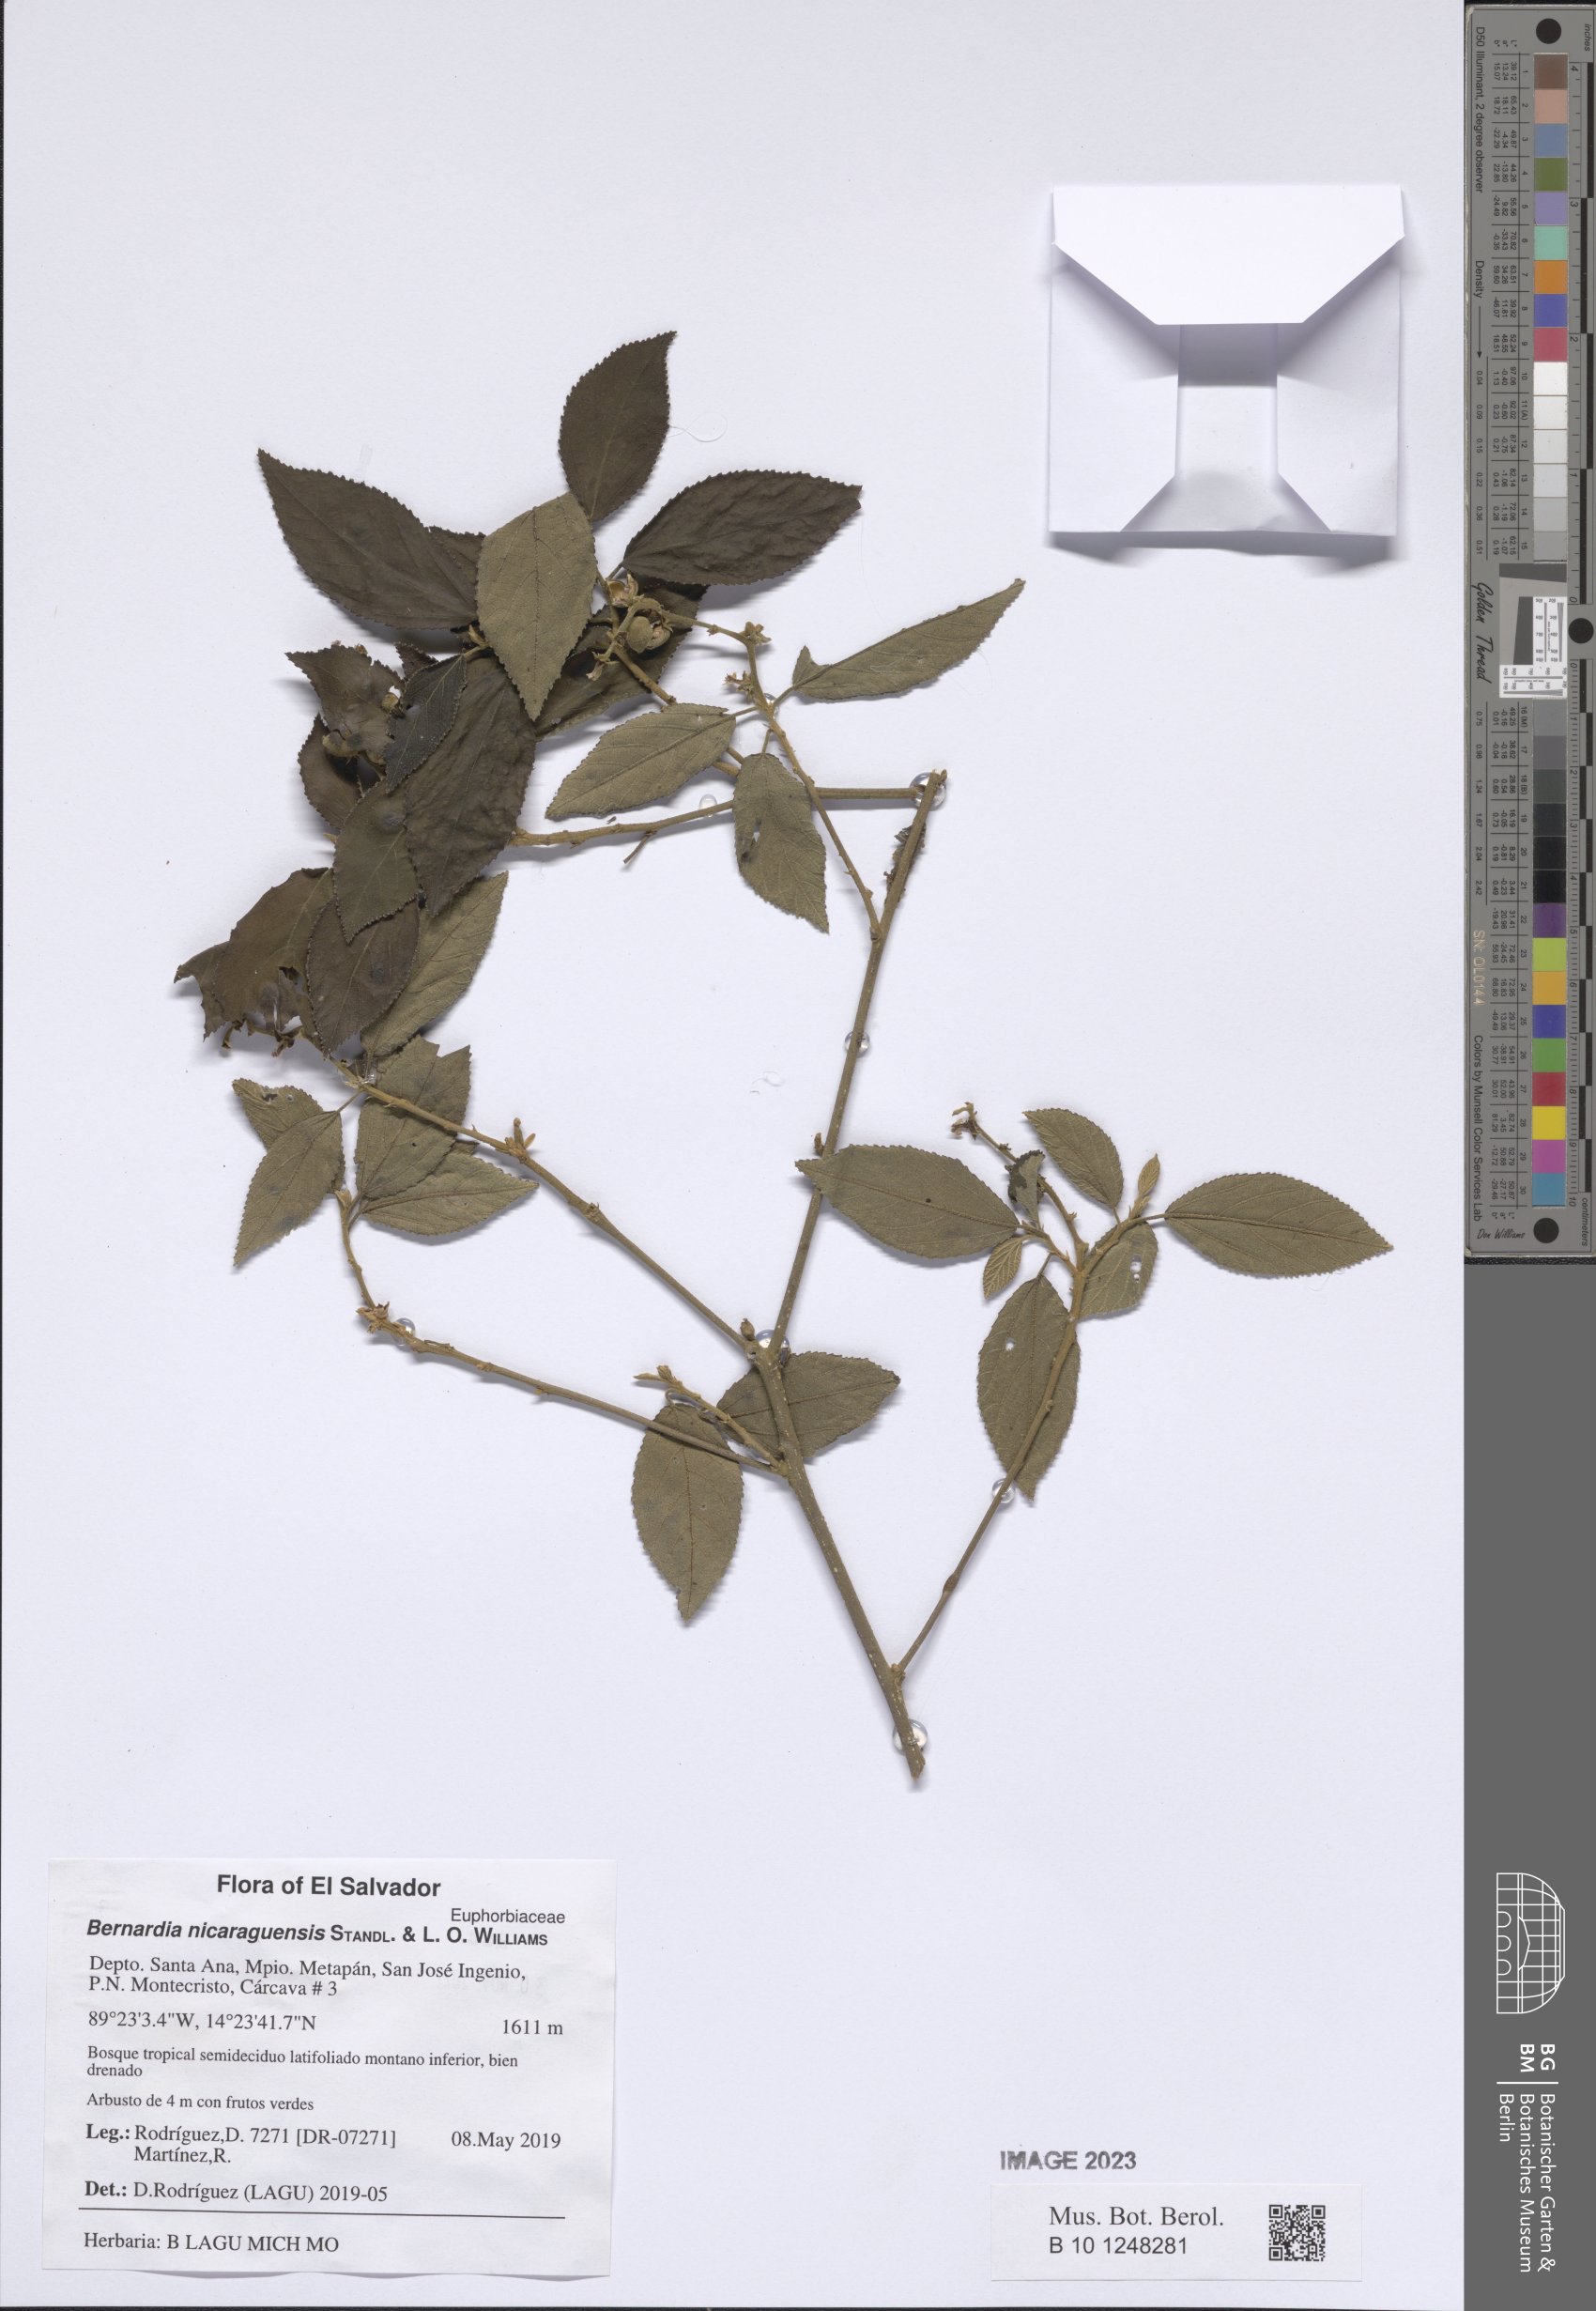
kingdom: Plantae
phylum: Tracheophyta
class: Magnoliopsida
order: Malpighiales
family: Euphorbiaceae
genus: Bernardia
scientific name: Bernardia nicaraguensis
